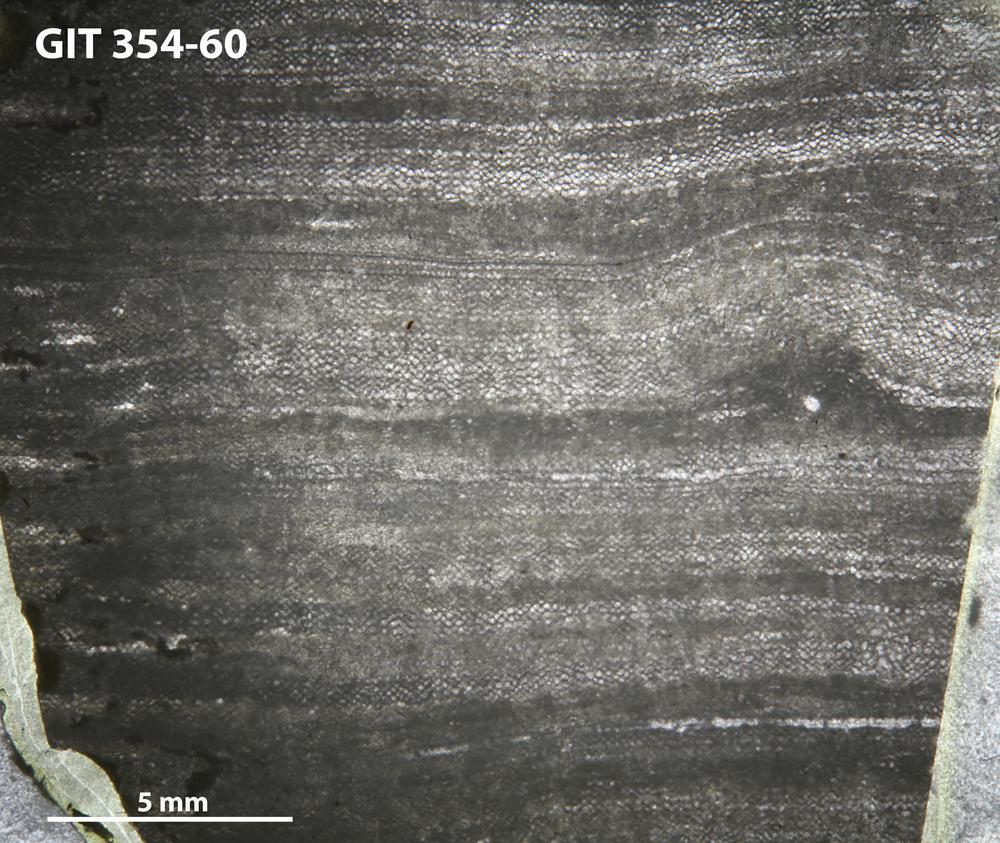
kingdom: Animalia
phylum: Porifera
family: Ecclimadictyidae
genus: Ecclimadictyon
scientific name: Ecclimadictyon arcuatum
